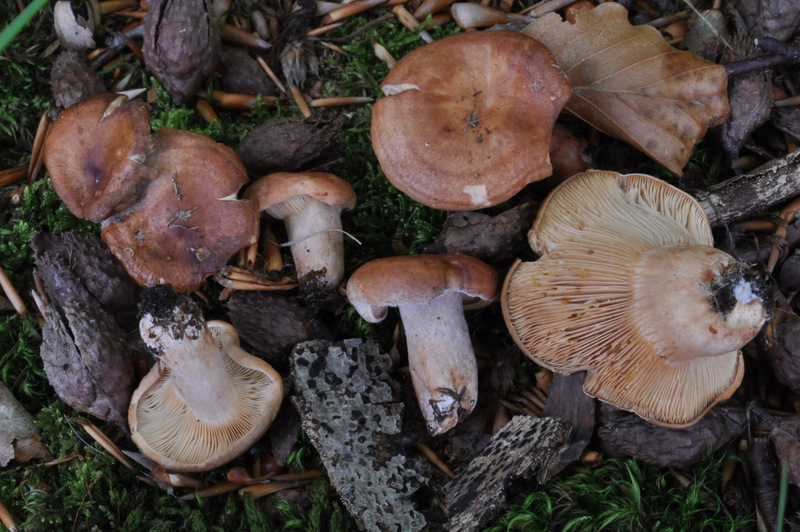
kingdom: Fungi
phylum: Basidiomycota
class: Agaricomycetes
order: Russulales
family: Russulaceae
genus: Lactarius
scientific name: Lactarius decipiens
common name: pelargonie-mælkehat
